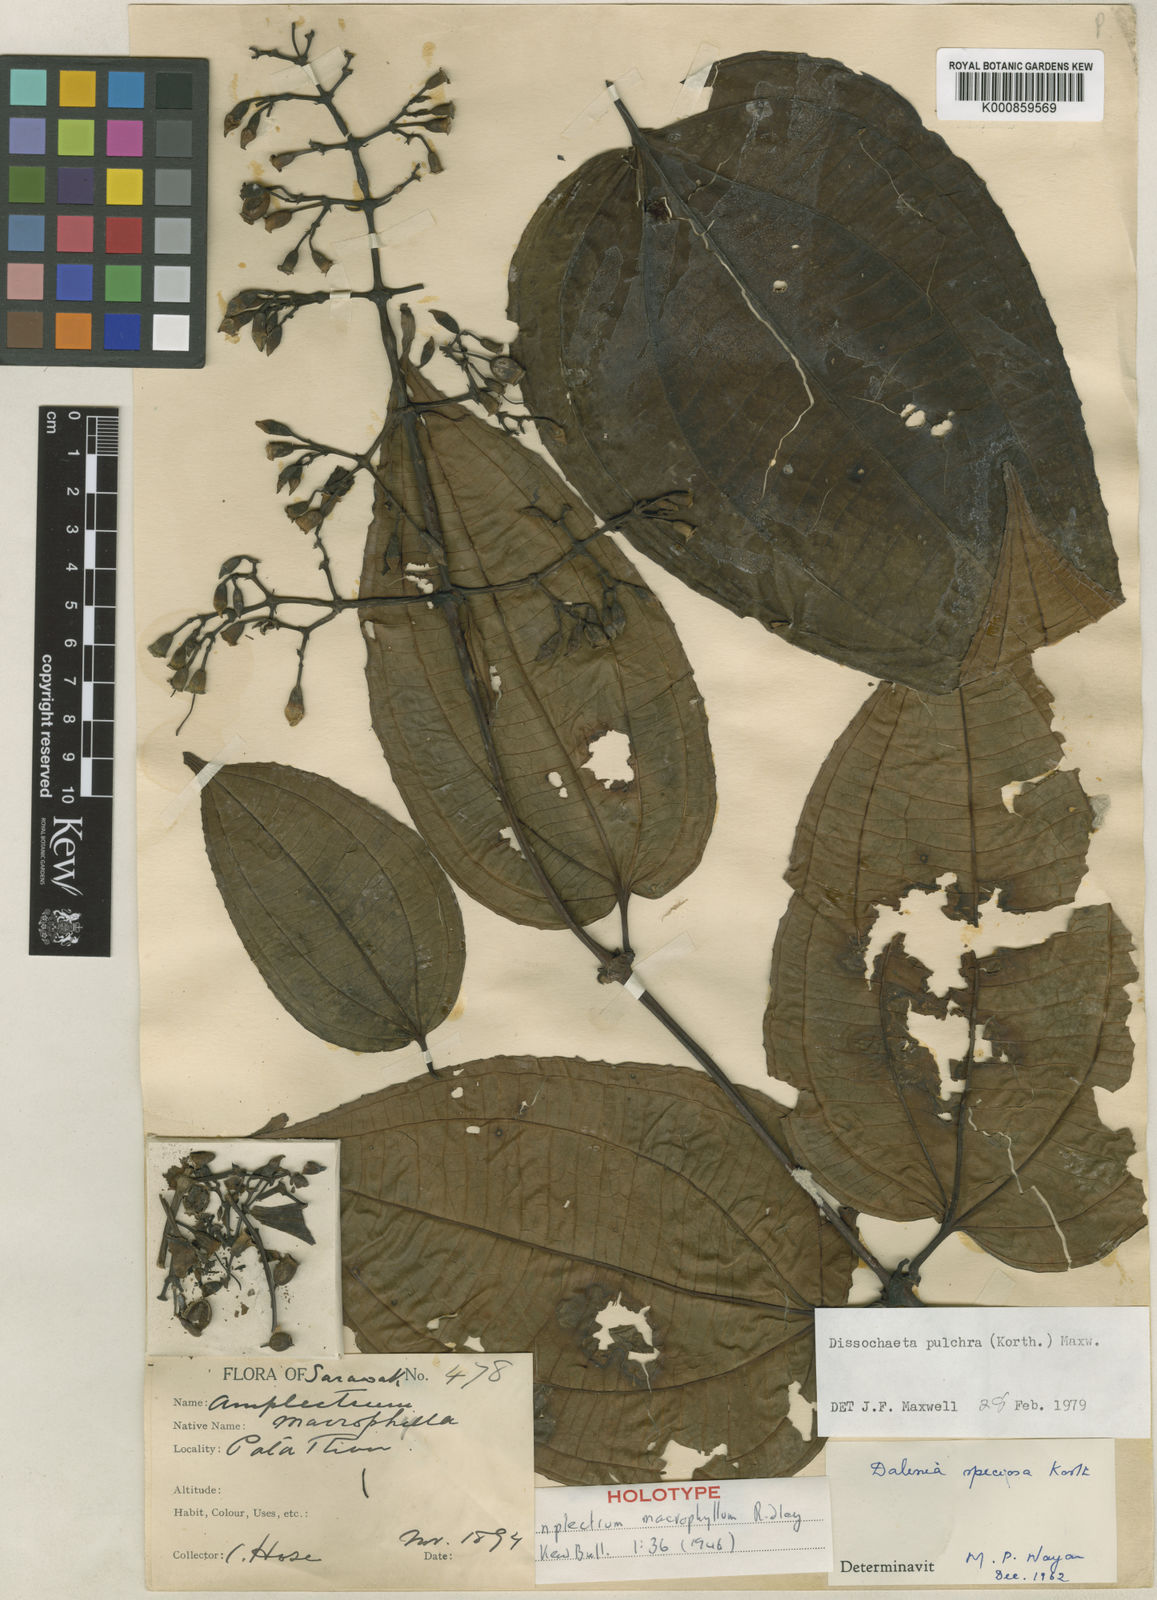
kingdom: Plantae
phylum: Tracheophyta
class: Magnoliopsida
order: Myrtales
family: Melastomataceae
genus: Dalenia
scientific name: Dalenia pulchra
